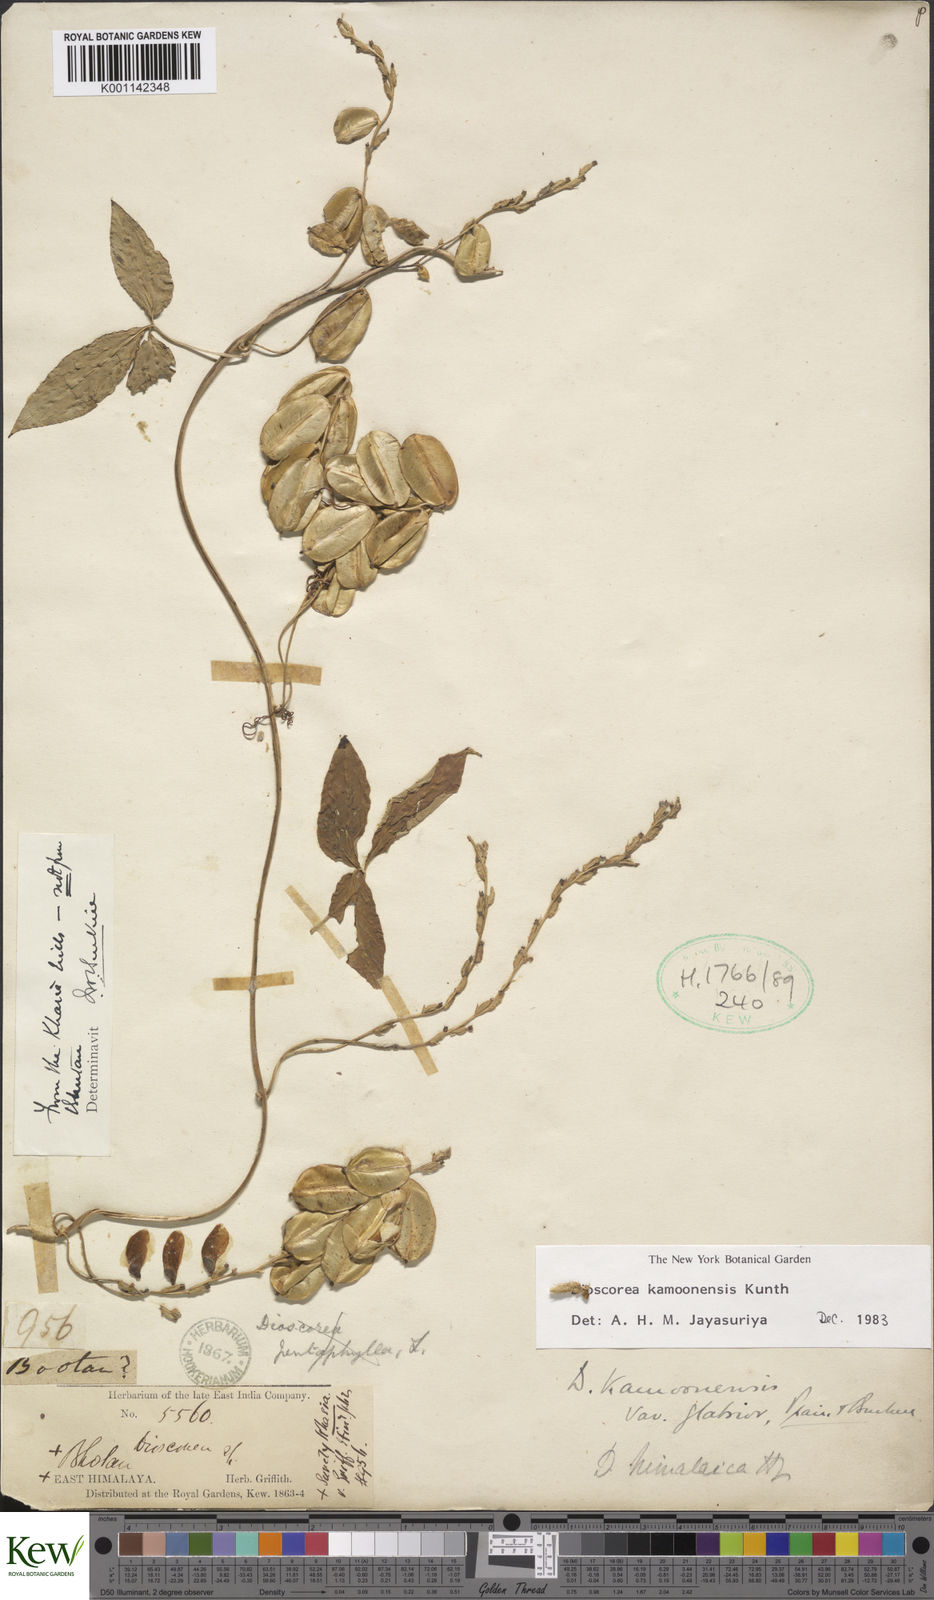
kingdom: Plantae
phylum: Tracheophyta
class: Liliopsida
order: Dioscoreales
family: Dioscoreaceae
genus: Dioscorea
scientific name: Dioscorea kamoonensis
